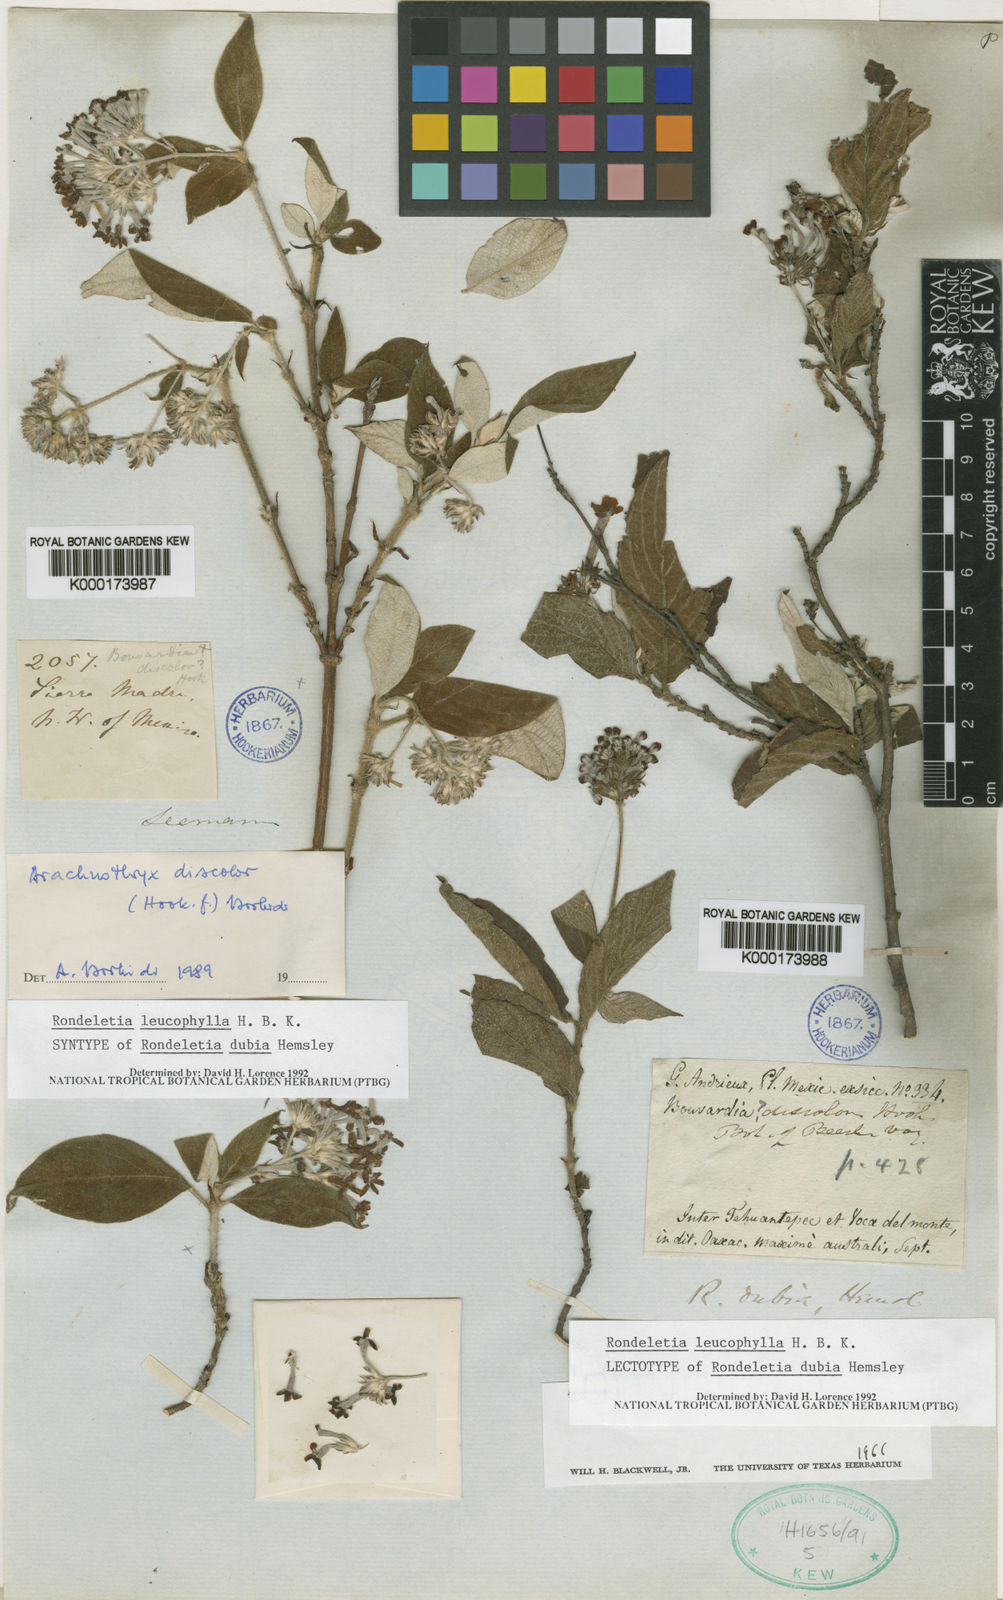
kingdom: Plantae
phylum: Tracheophyta
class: Magnoliopsida
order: Gentianales
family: Rubiaceae
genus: Arachnothryx
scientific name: Arachnothryx leucophylla
